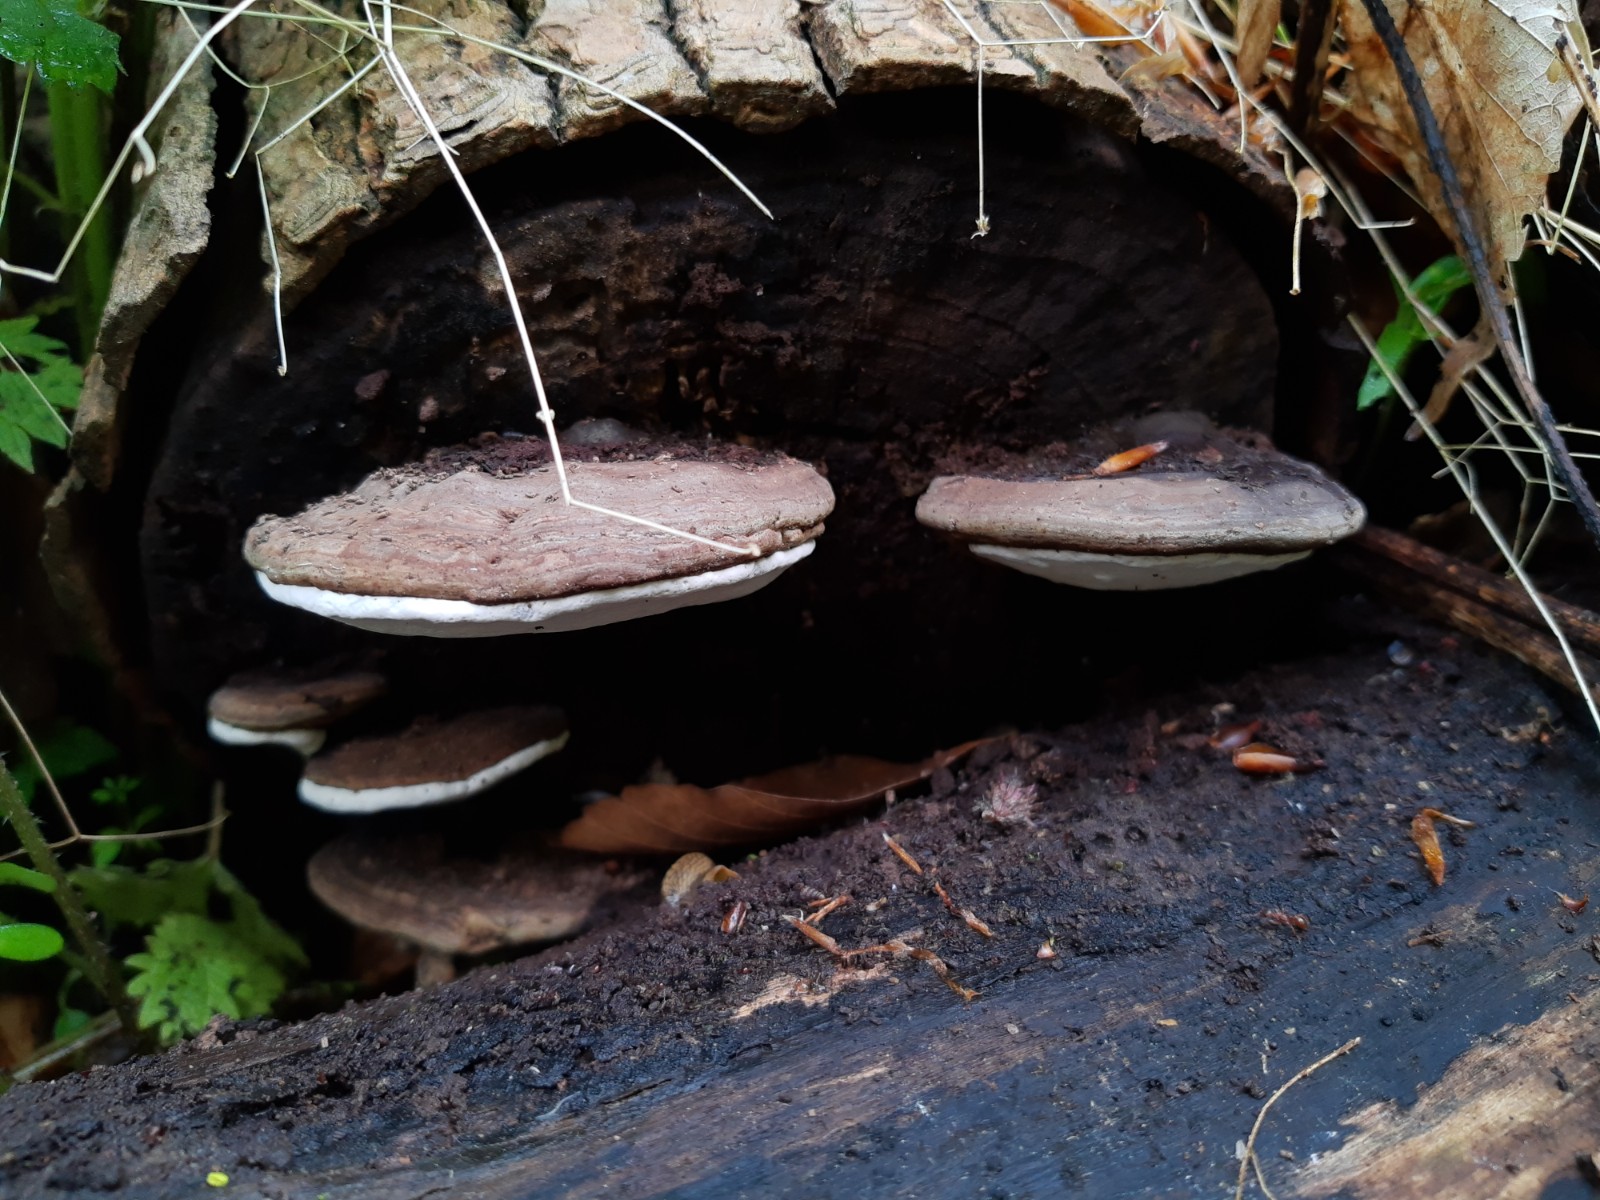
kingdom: Fungi
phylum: Basidiomycota
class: Agaricomycetes
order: Polyporales
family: Polyporaceae
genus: Ganoderma
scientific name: Ganoderma applanatum
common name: flad lakporesvamp
